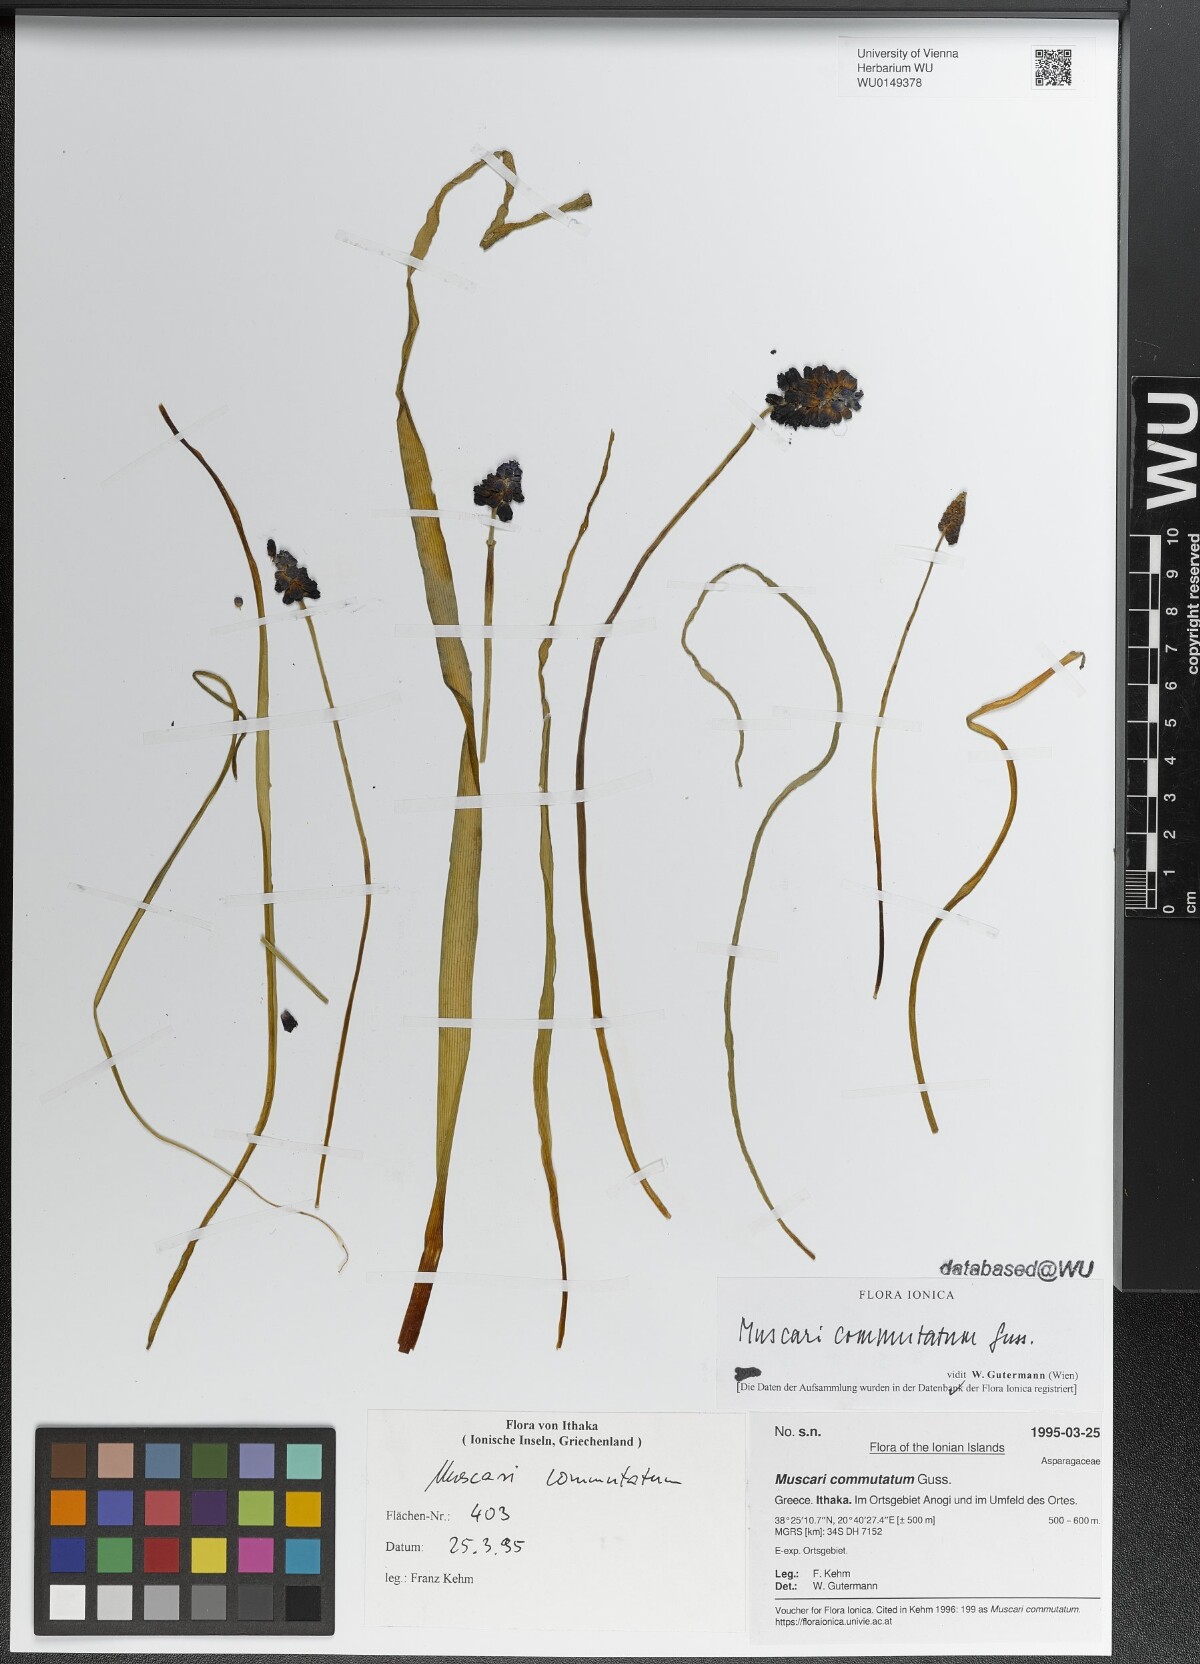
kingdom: Plantae
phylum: Tracheophyta
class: Liliopsida
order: Asparagales
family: Asparagaceae
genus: Muscari
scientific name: Muscari commutatum
